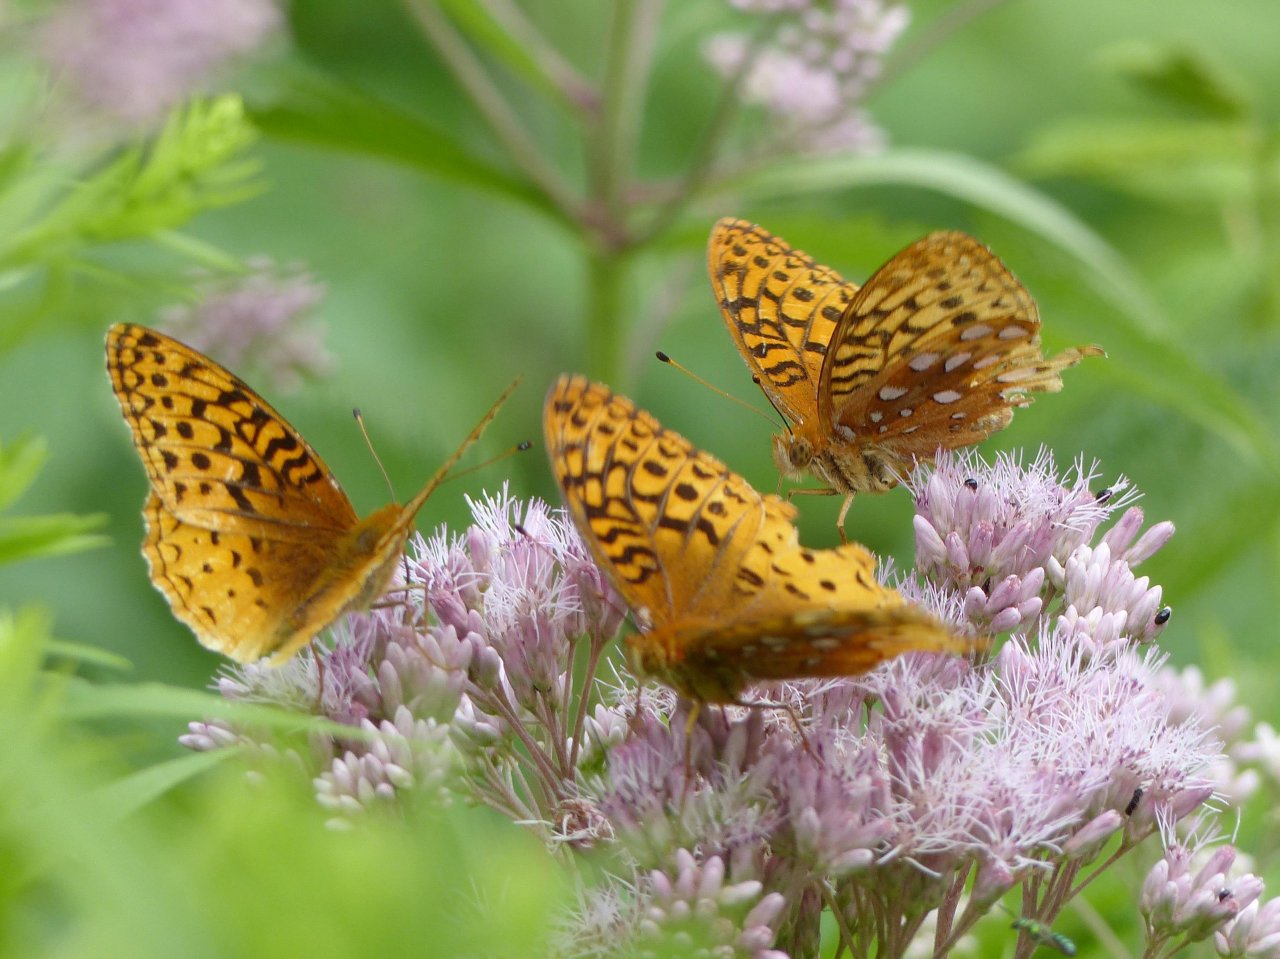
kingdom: Animalia
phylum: Arthropoda
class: Insecta
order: Lepidoptera
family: Nymphalidae
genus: Speyeria
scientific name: Speyeria cybele
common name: Great Spangled Fritillary
